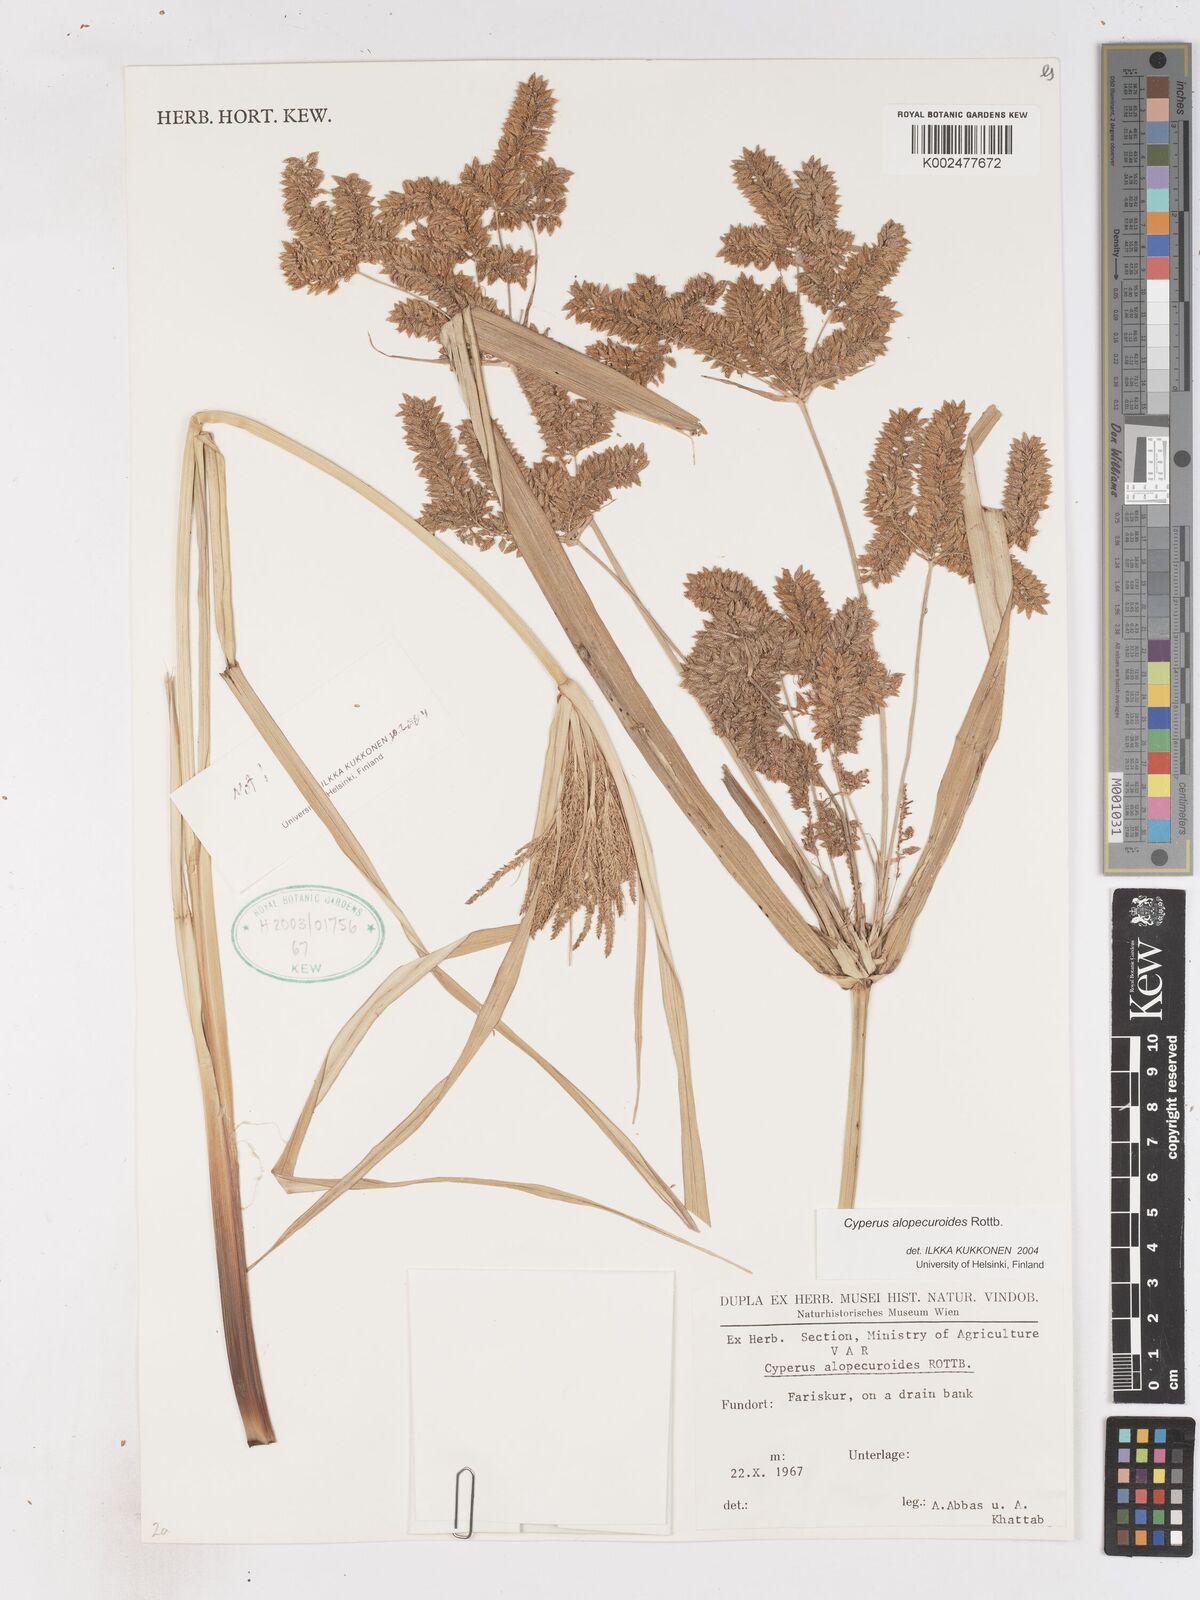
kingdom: Plantae
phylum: Tracheophyta
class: Liliopsida
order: Poales
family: Cyperaceae
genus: Cyperus
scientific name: Cyperus alopecuroides
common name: Foxtail flatsedge
